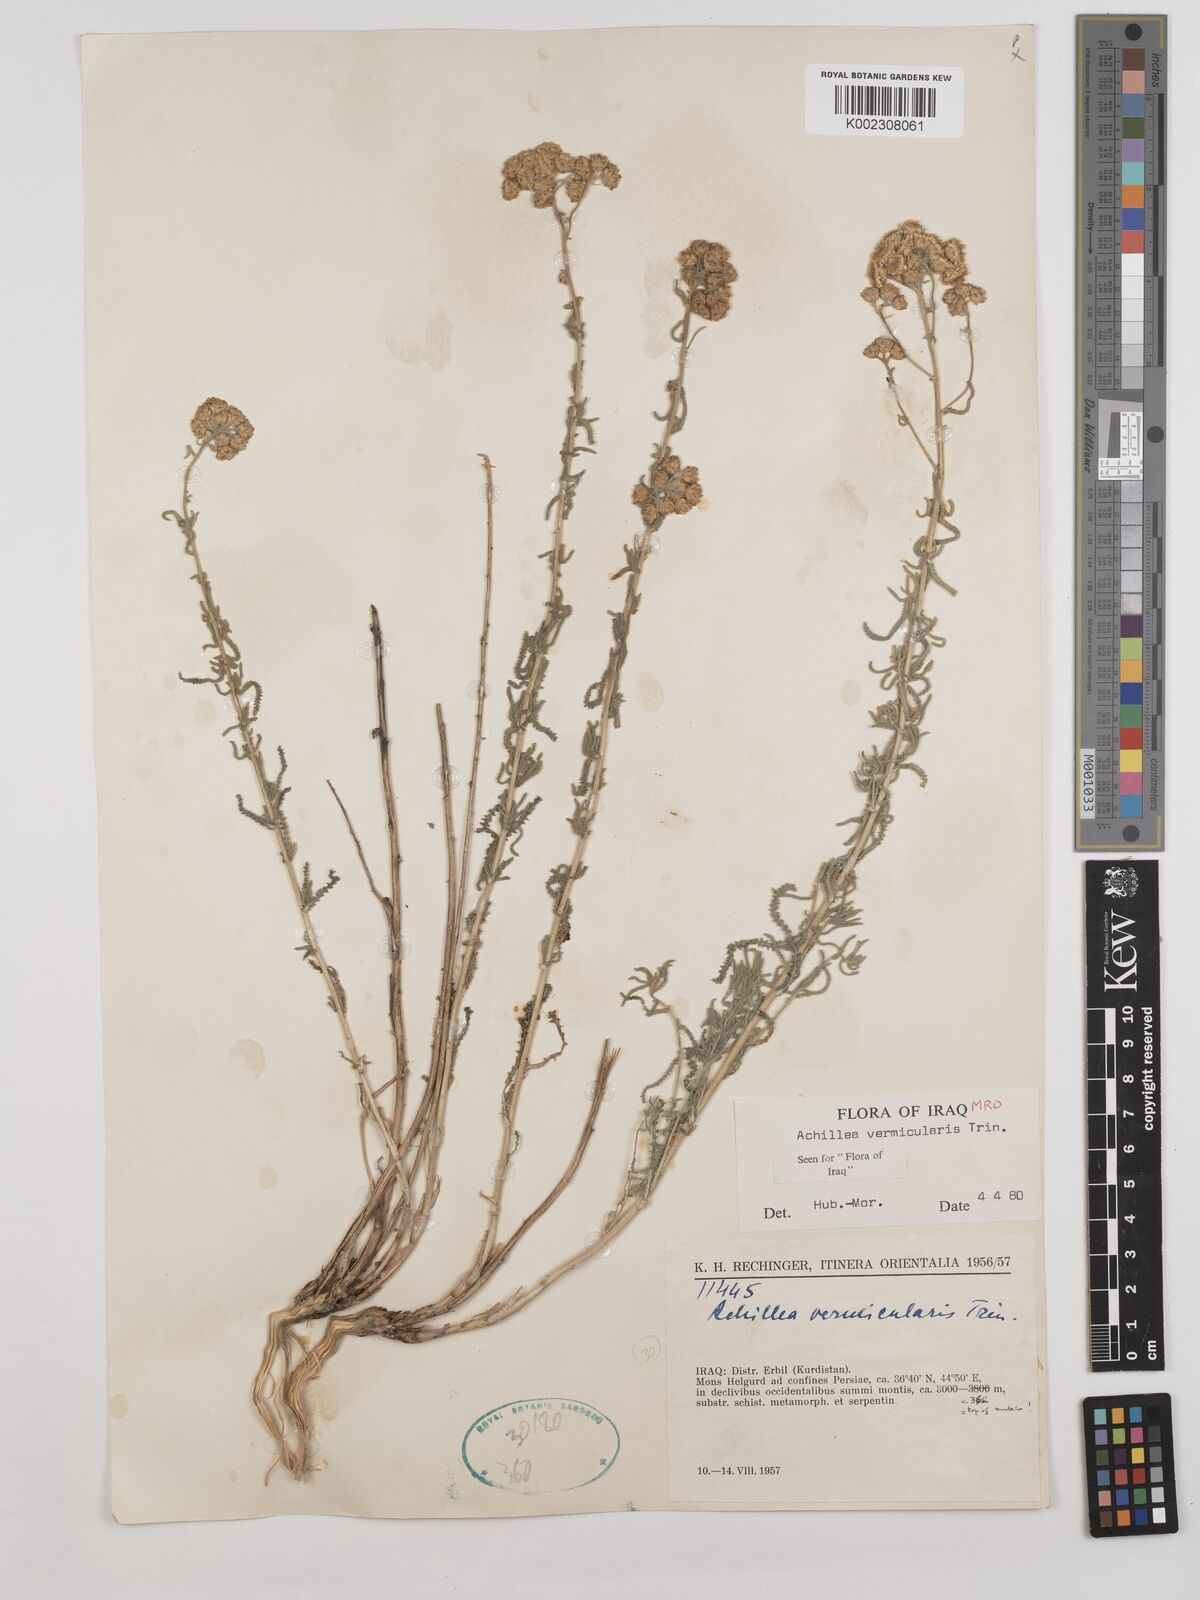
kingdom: Plantae
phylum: Tracheophyta
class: Magnoliopsida
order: Asterales
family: Asteraceae
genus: Achillea
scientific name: Achillea vermicularis
